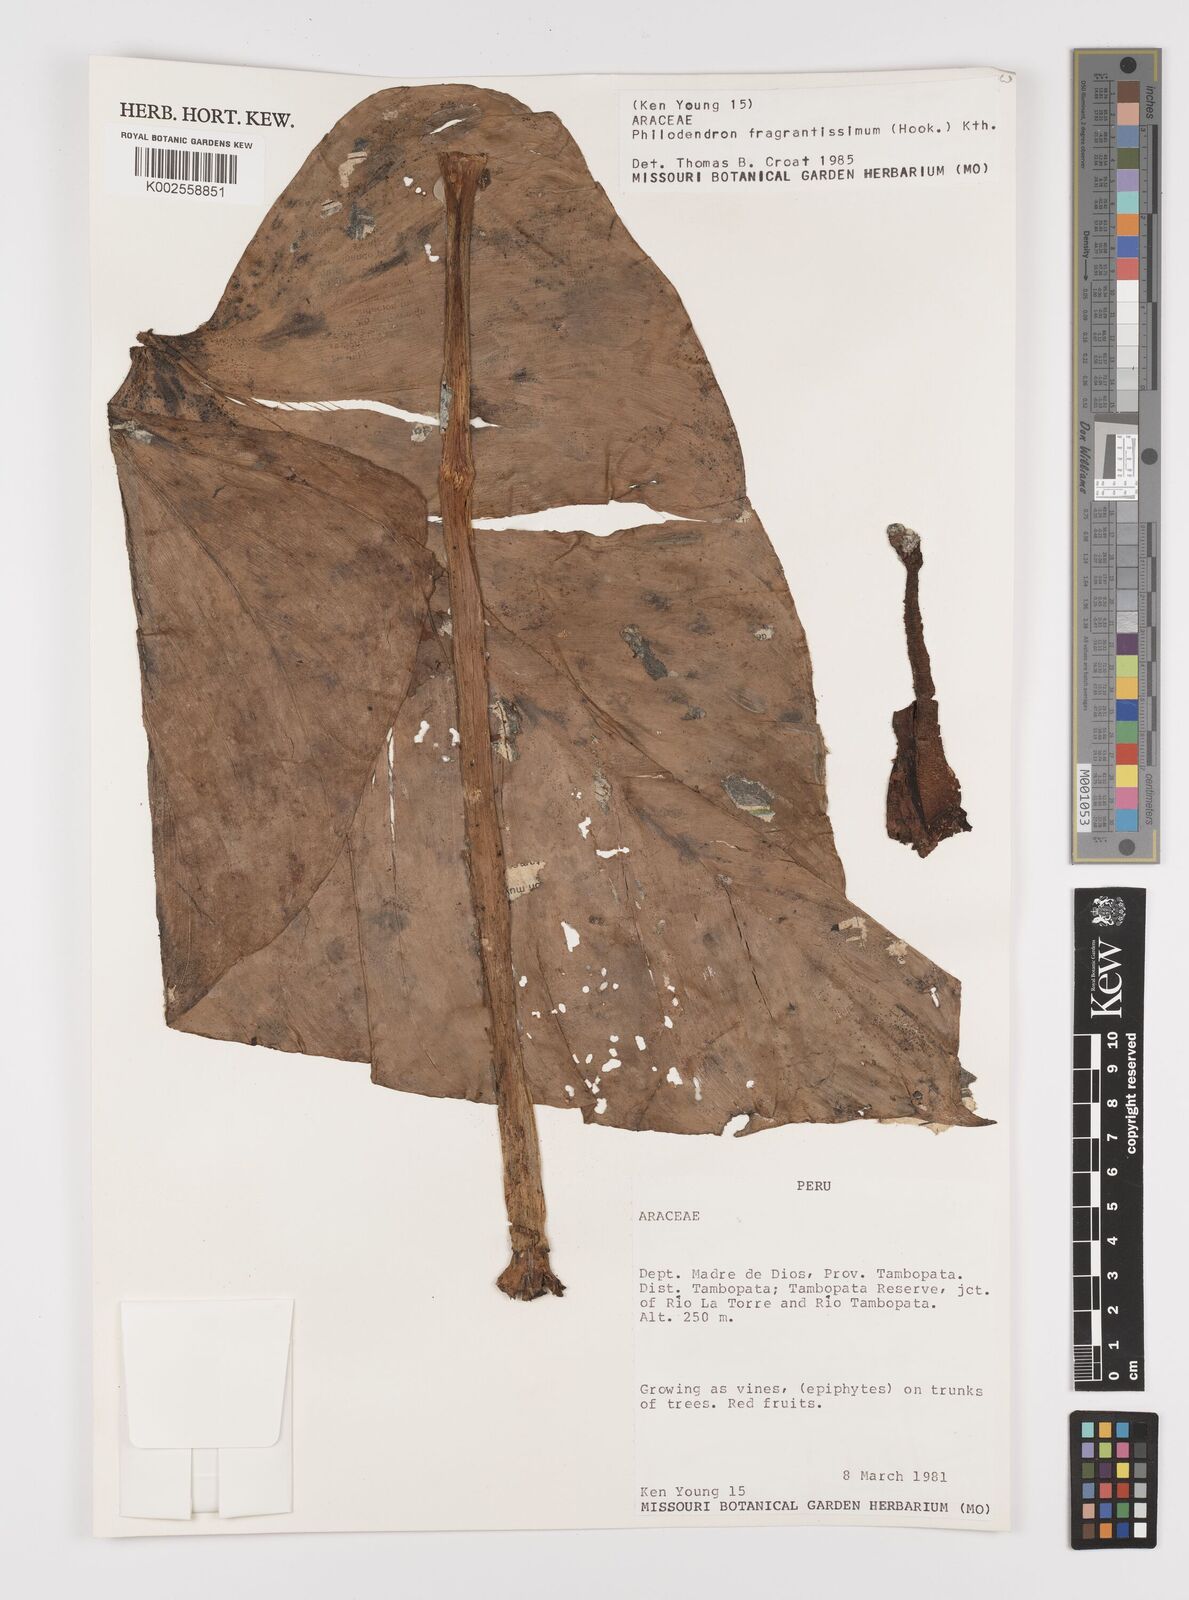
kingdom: Plantae
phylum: Tracheophyta
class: Liliopsida
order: Alismatales
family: Araceae
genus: Philodendron
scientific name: Philodendron fragrantissimum
